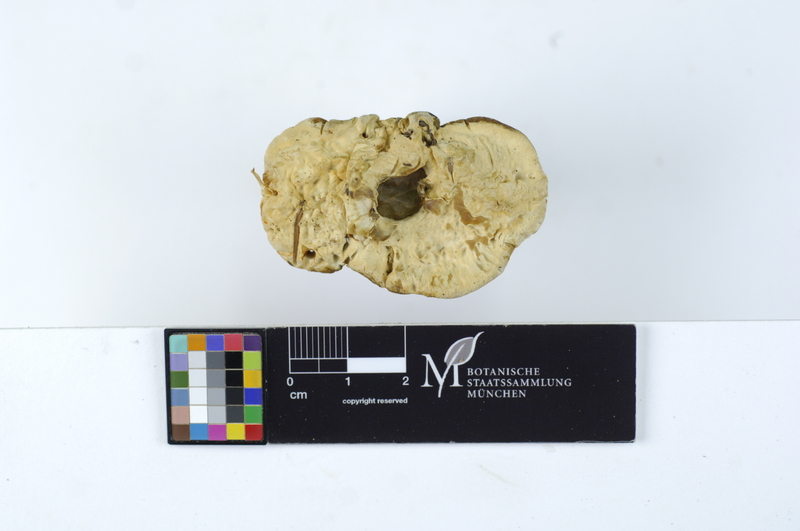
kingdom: Fungi
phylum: Basidiomycota
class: Agaricomycetes
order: Thelephorales
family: Bankeraceae
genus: Hydnellum
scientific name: Hydnellum suaveolens
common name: Sweetgrass hydnellum
